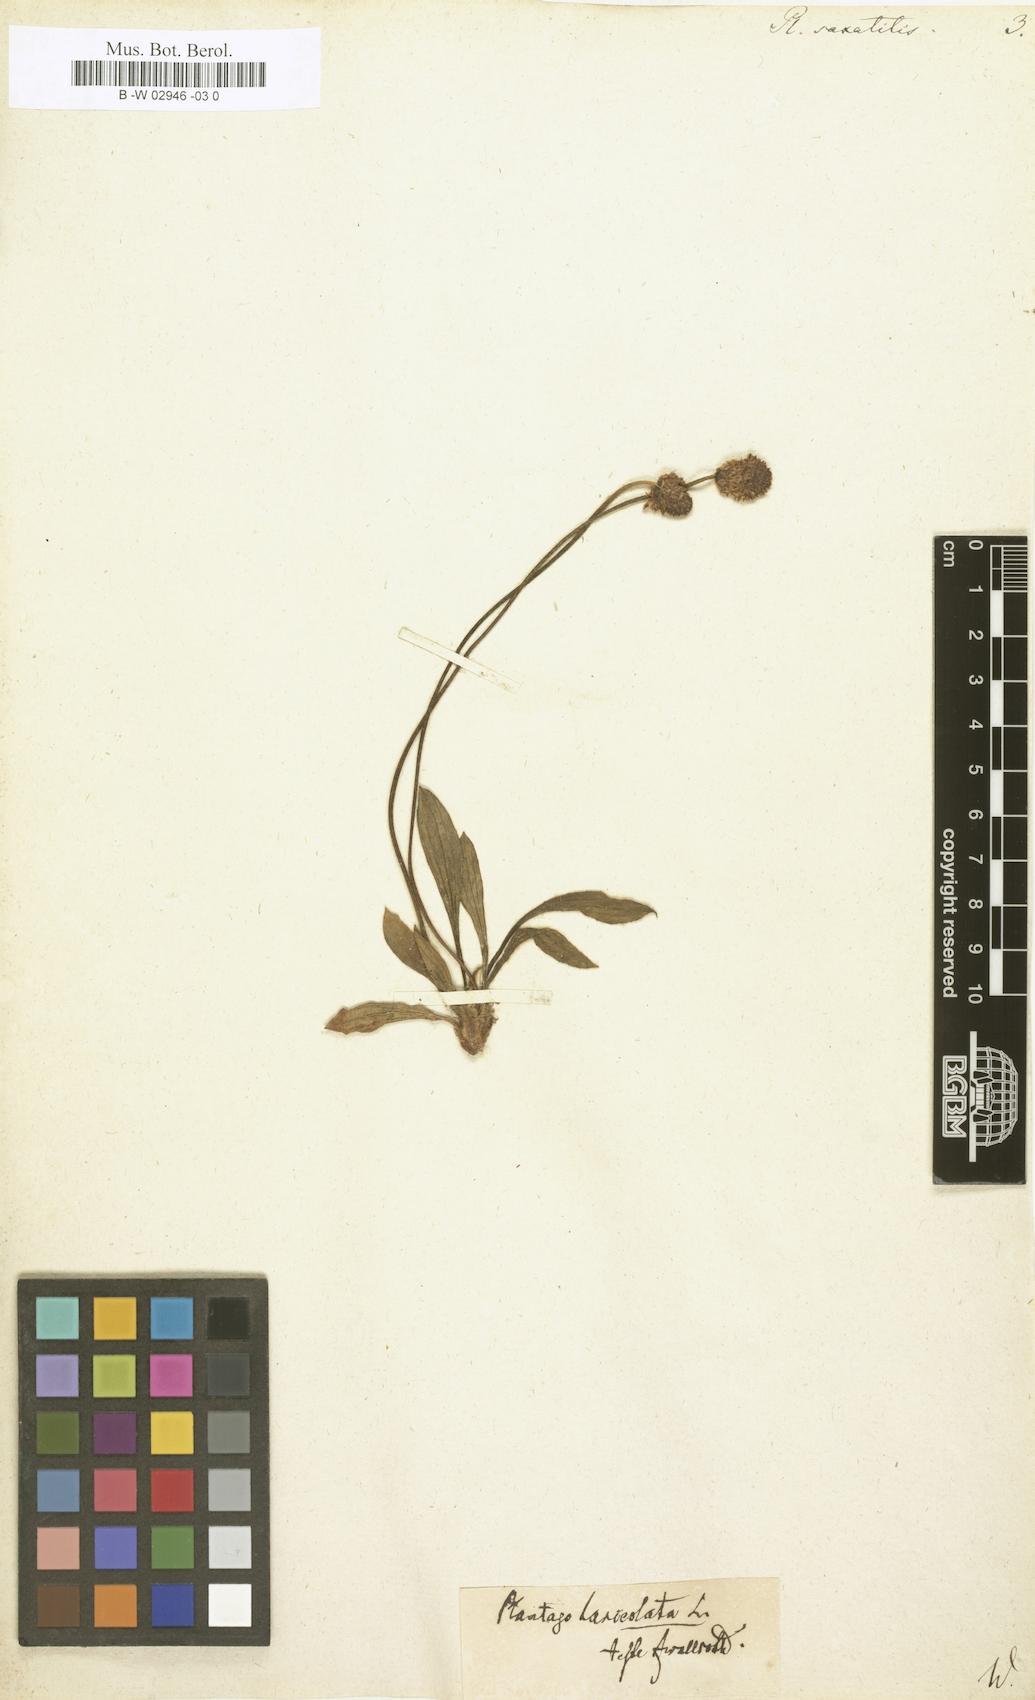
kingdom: Plantae
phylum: Tracheophyta
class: Magnoliopsida
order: Lamiales
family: Plantaginaceae
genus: Plantago
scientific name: Plantago atrata
